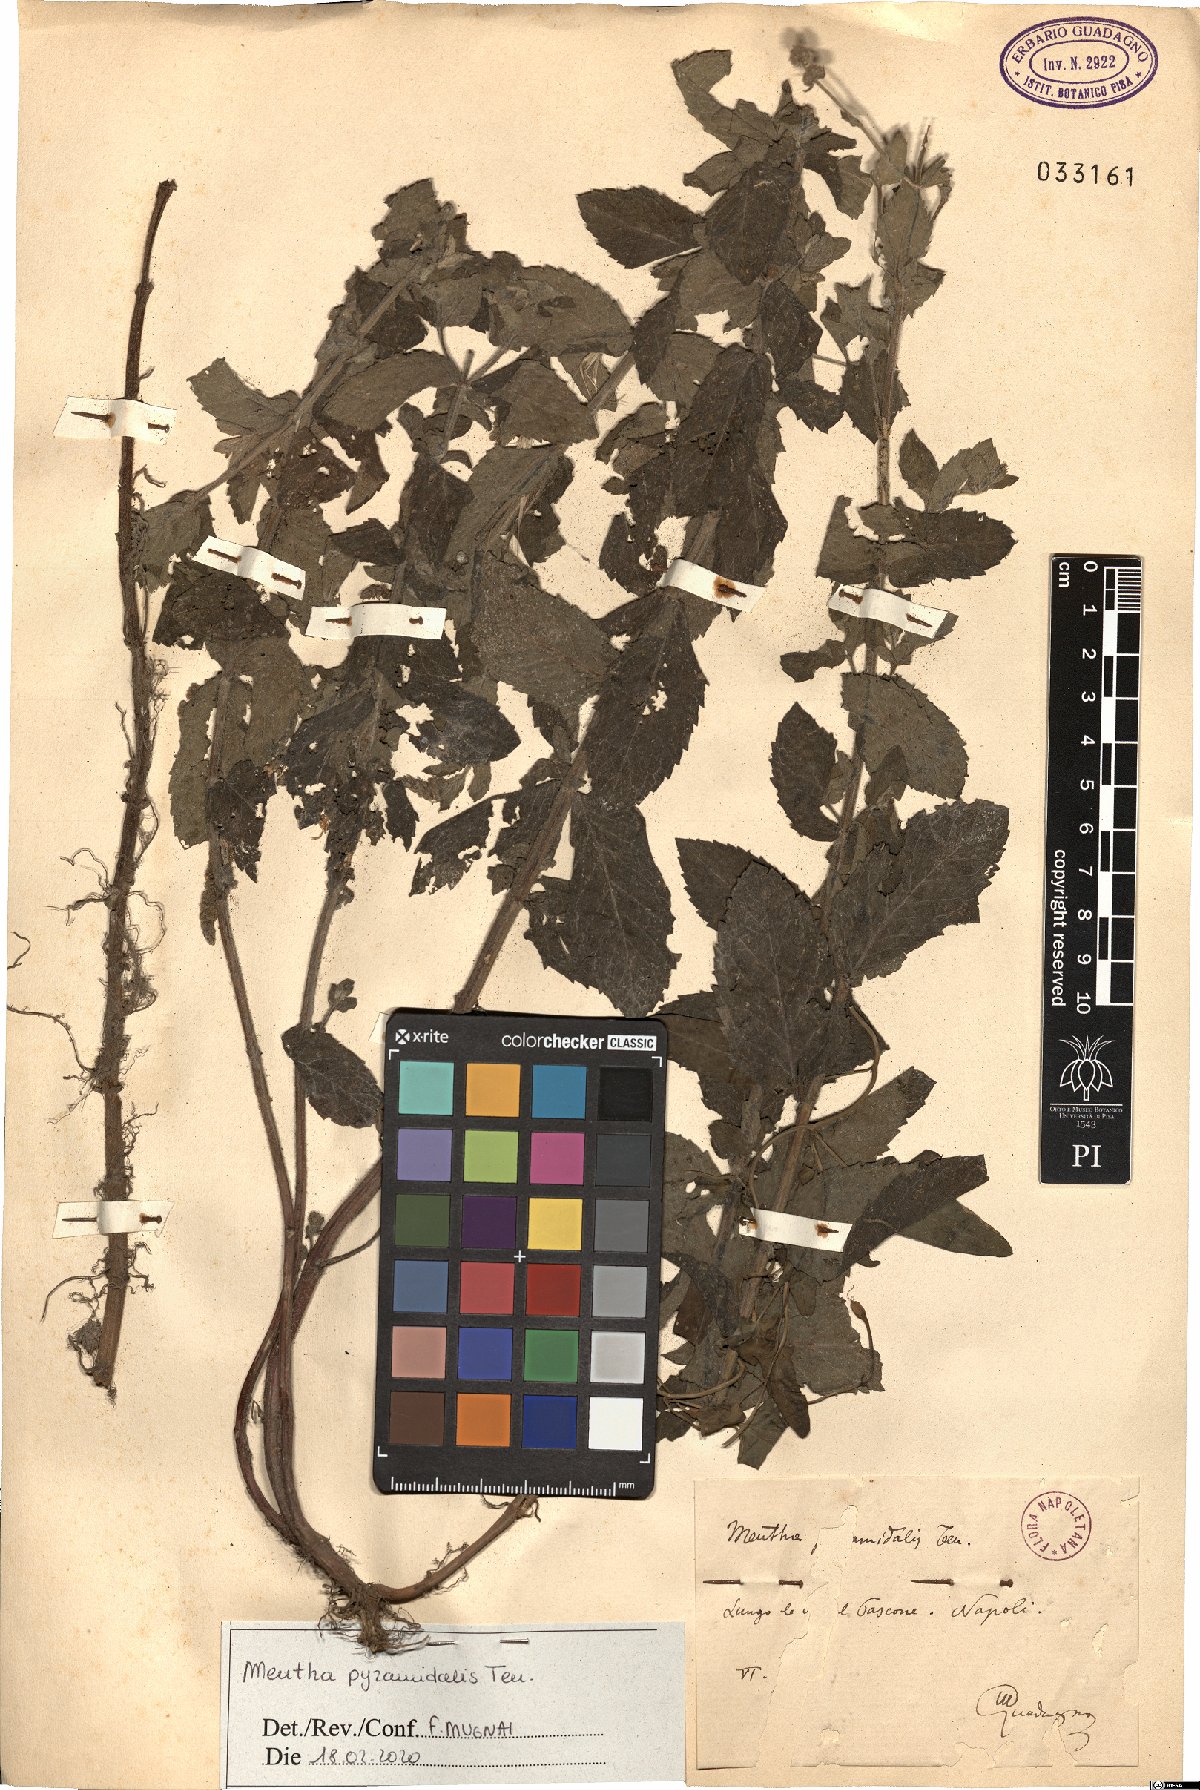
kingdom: Plantae
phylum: Tracheophyta
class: Magnoliopsida
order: Lamiales
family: Lamiaceae
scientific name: Lamiaceae
